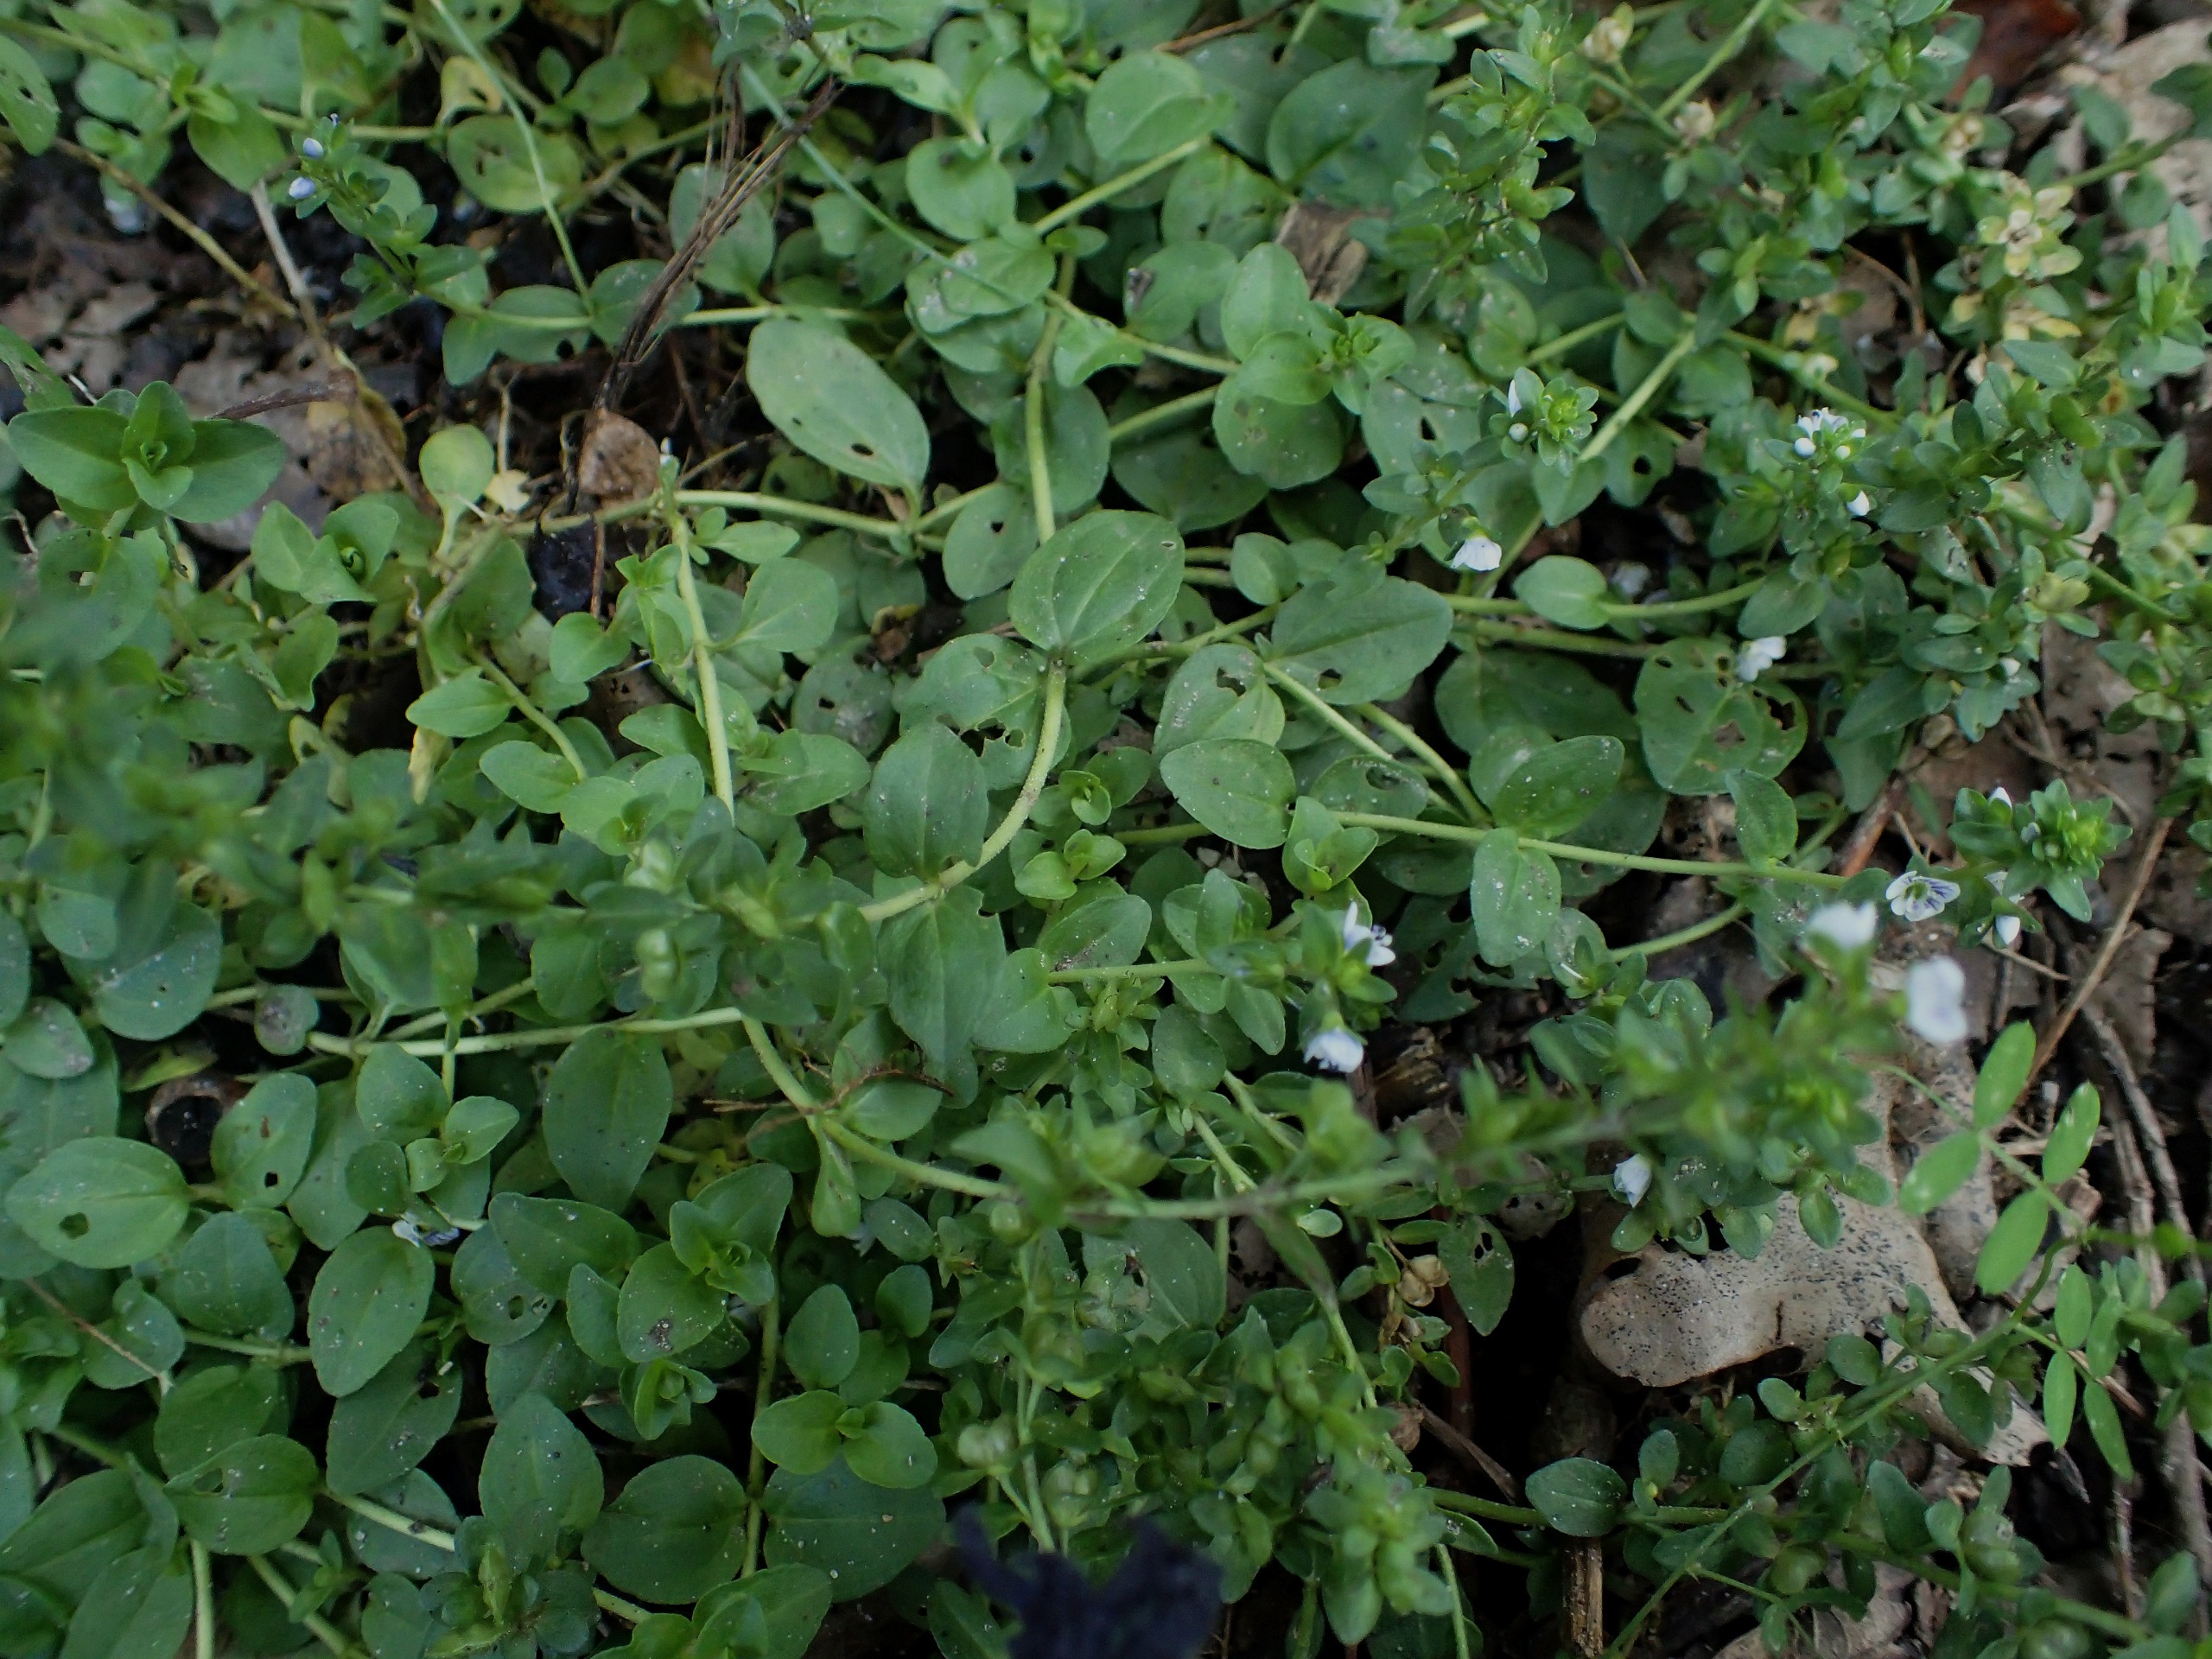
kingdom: Plantae
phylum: Tracheophyta
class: Magnoliopsida
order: Lamiales
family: Plantaginaceae
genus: Veronica
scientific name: Veronica serpyllifolia
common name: Glat ærenpris
